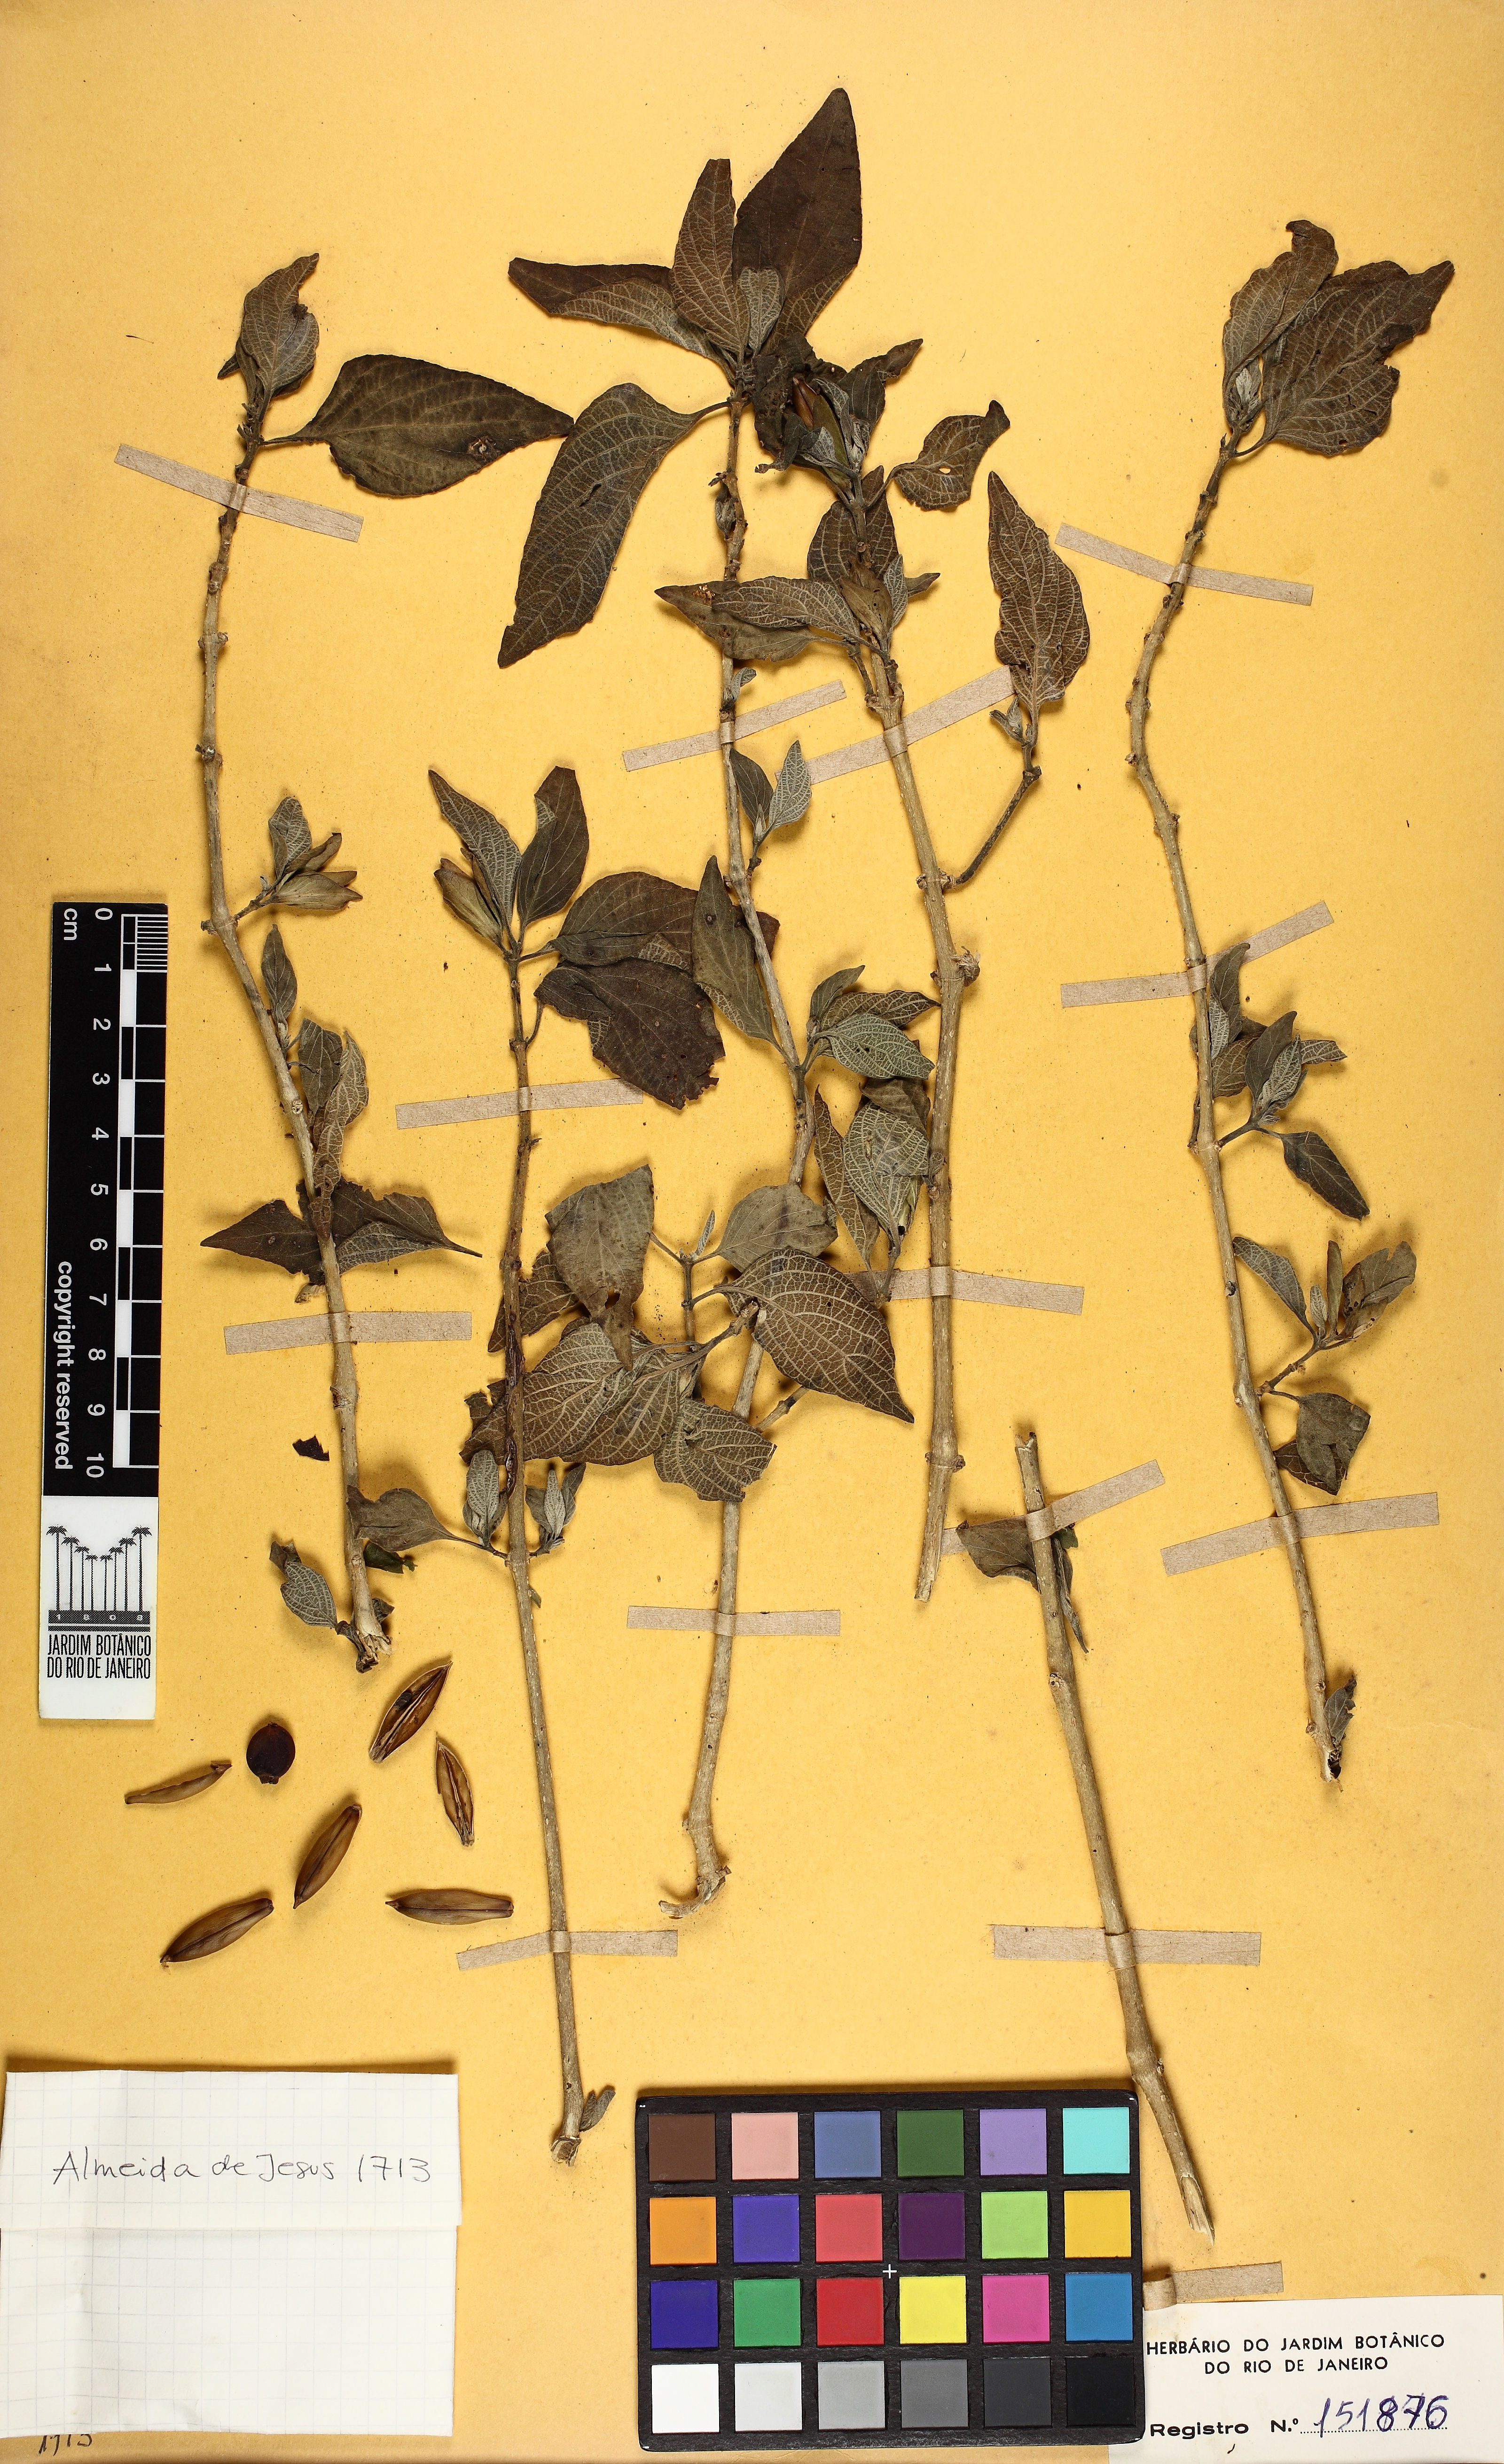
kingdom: Plantae
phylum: Tracheophyta
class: Magnoliopsida
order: Lamiales
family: Acanthaceae
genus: Ruellia
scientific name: Ruellia nobilis
